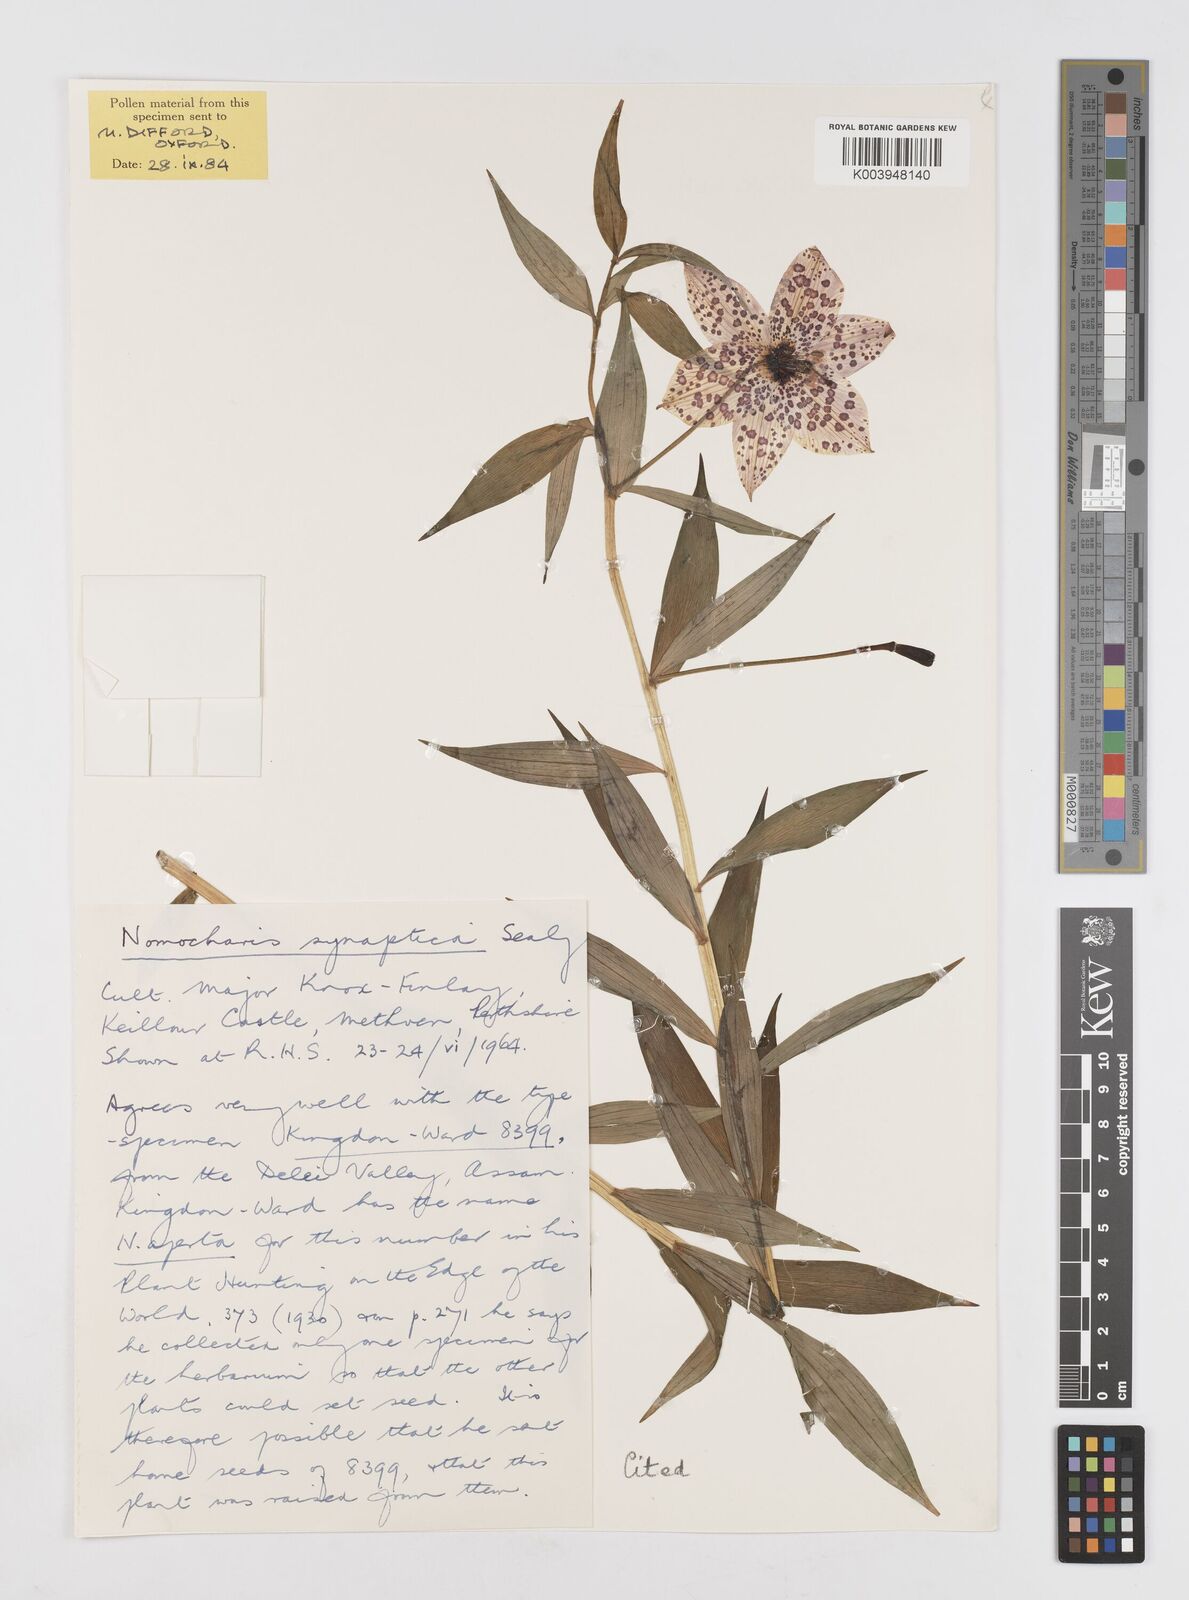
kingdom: Plantae
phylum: Tracheophyta
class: Liliopsida
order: Liliales
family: Liliaceae
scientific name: Liliaceae
